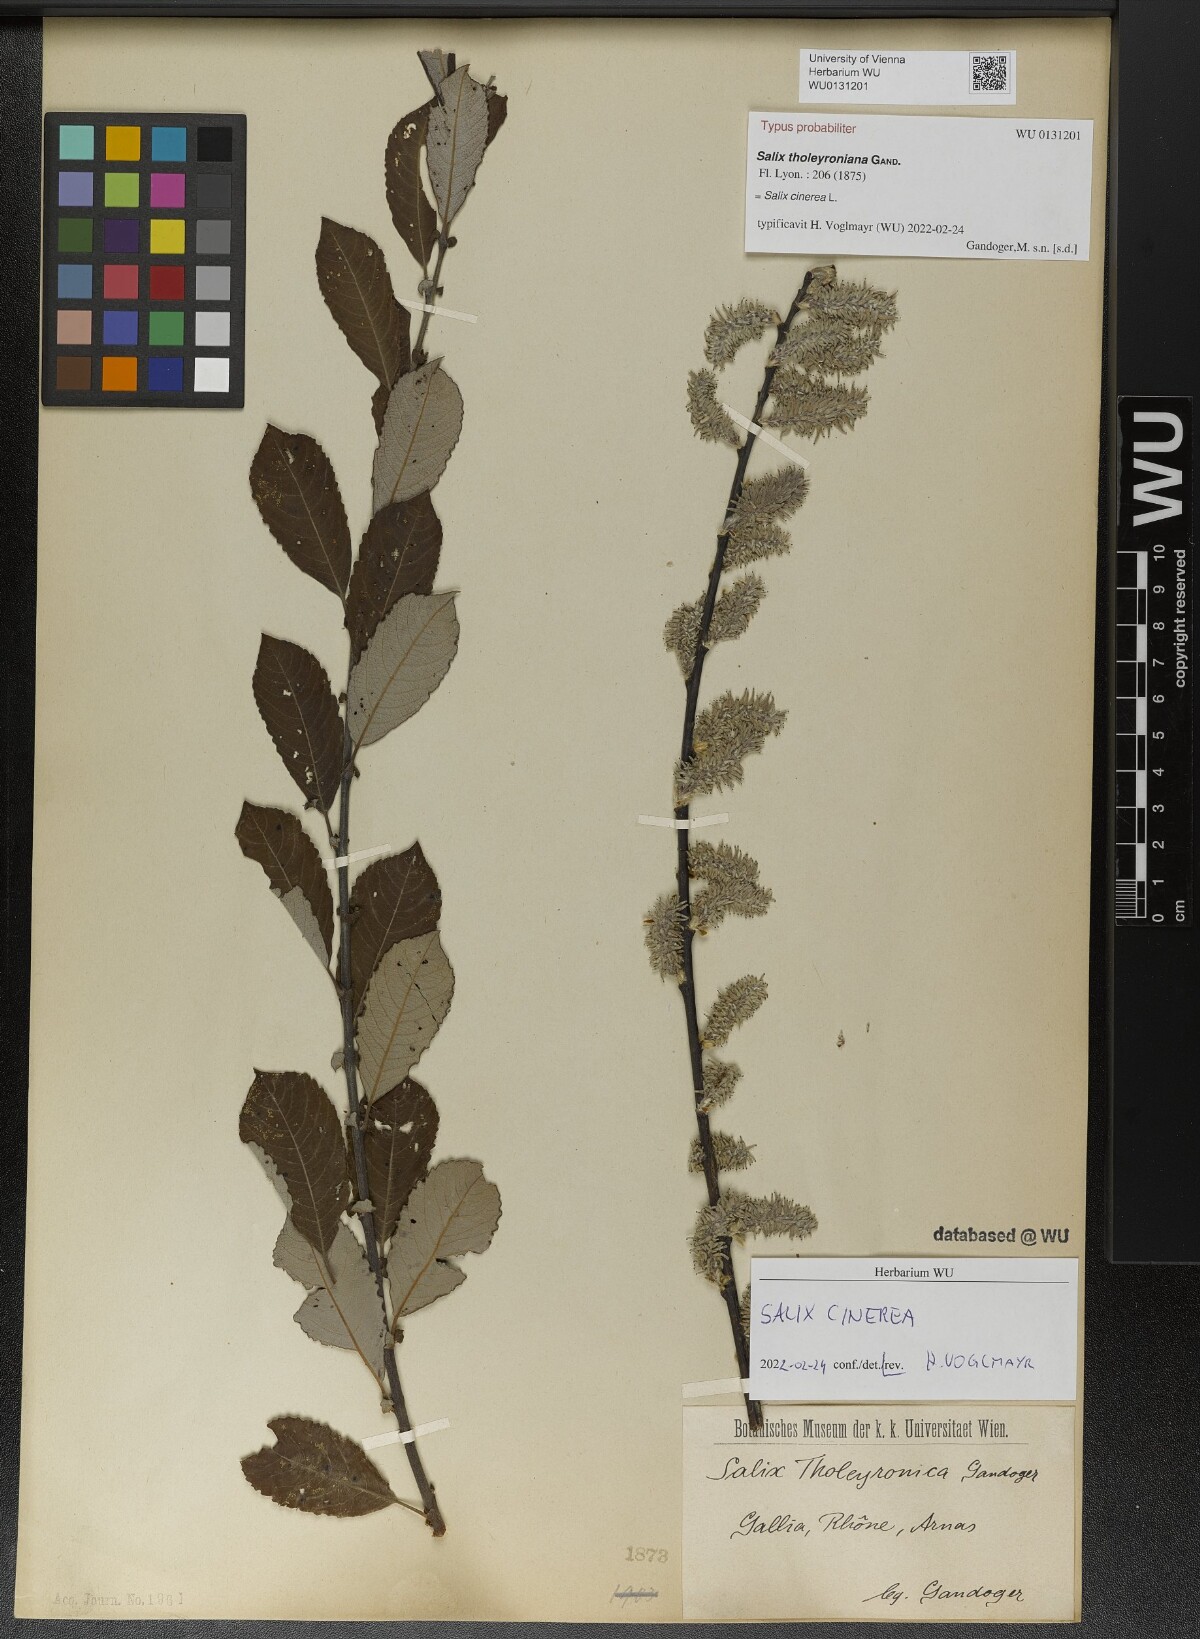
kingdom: Plantae
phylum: Tracheophyta
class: Magnoliopsida
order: Malpighiales
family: Salicaceae
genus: Salix
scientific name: Salix tholeyroniana
